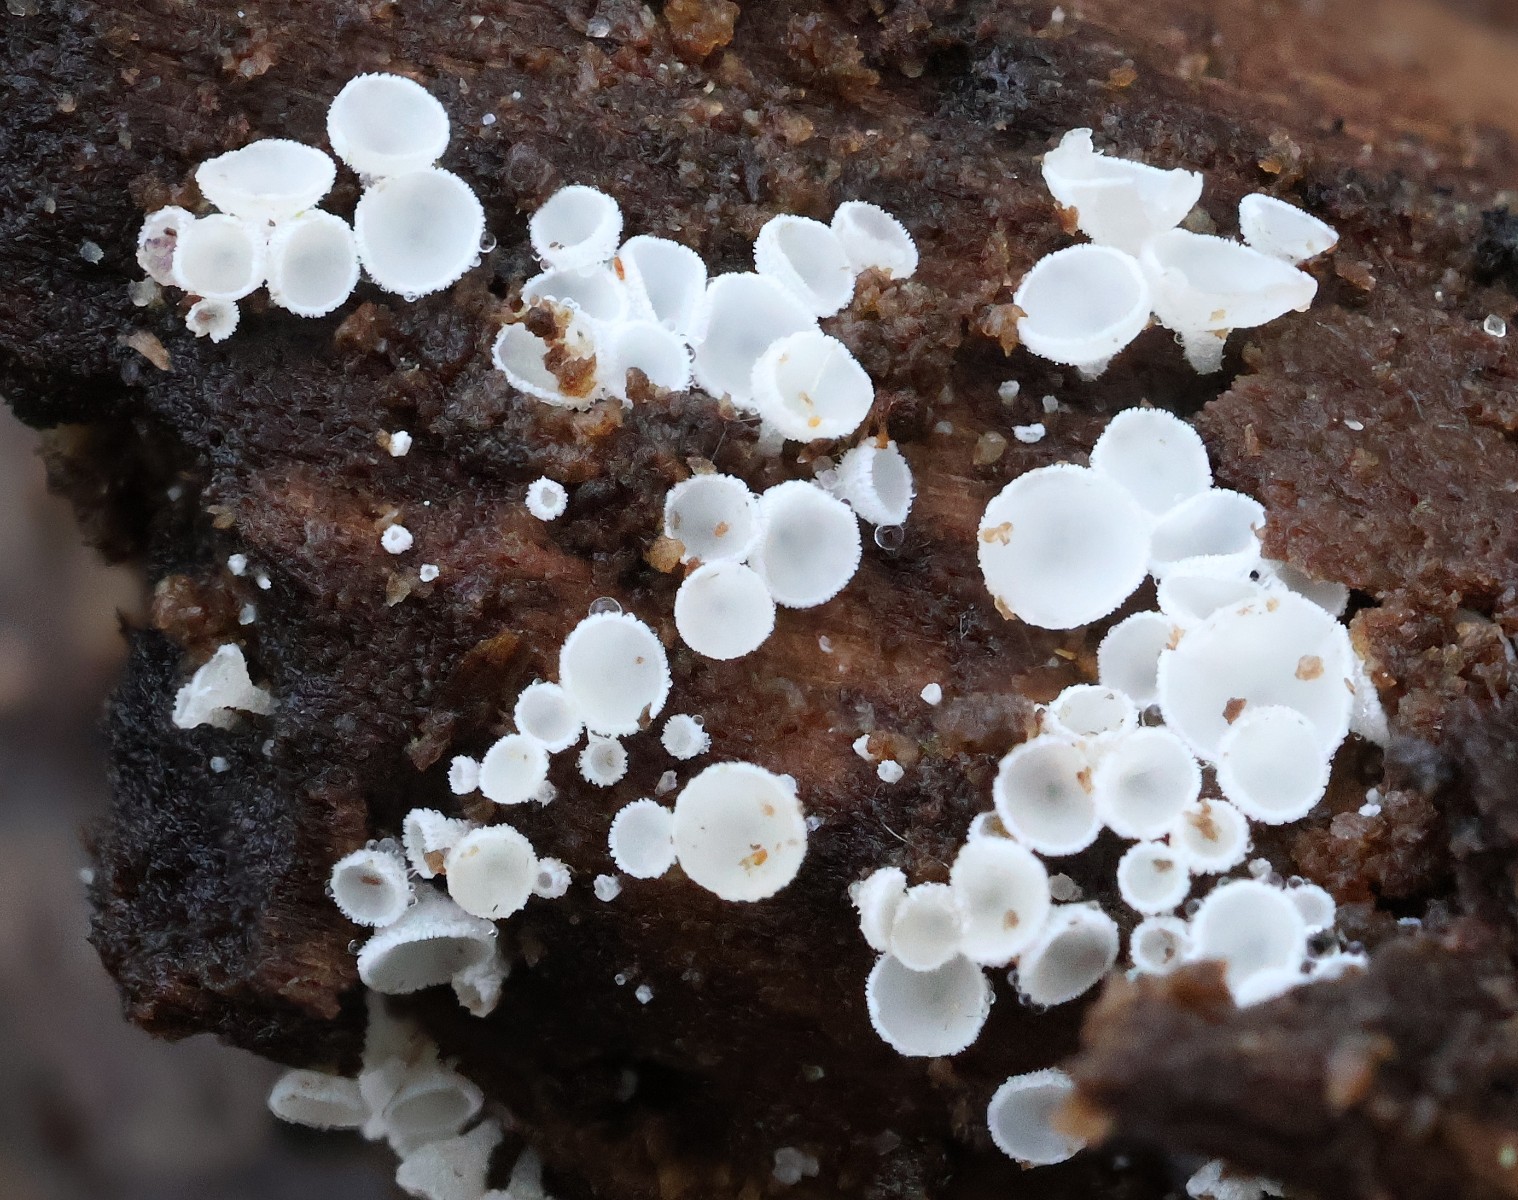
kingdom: Fungi
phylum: Ascomycota
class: Leotiomycetes
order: Helotiales
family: Lachnaceae
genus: Lachnum
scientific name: Lachnum
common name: frynseskive
